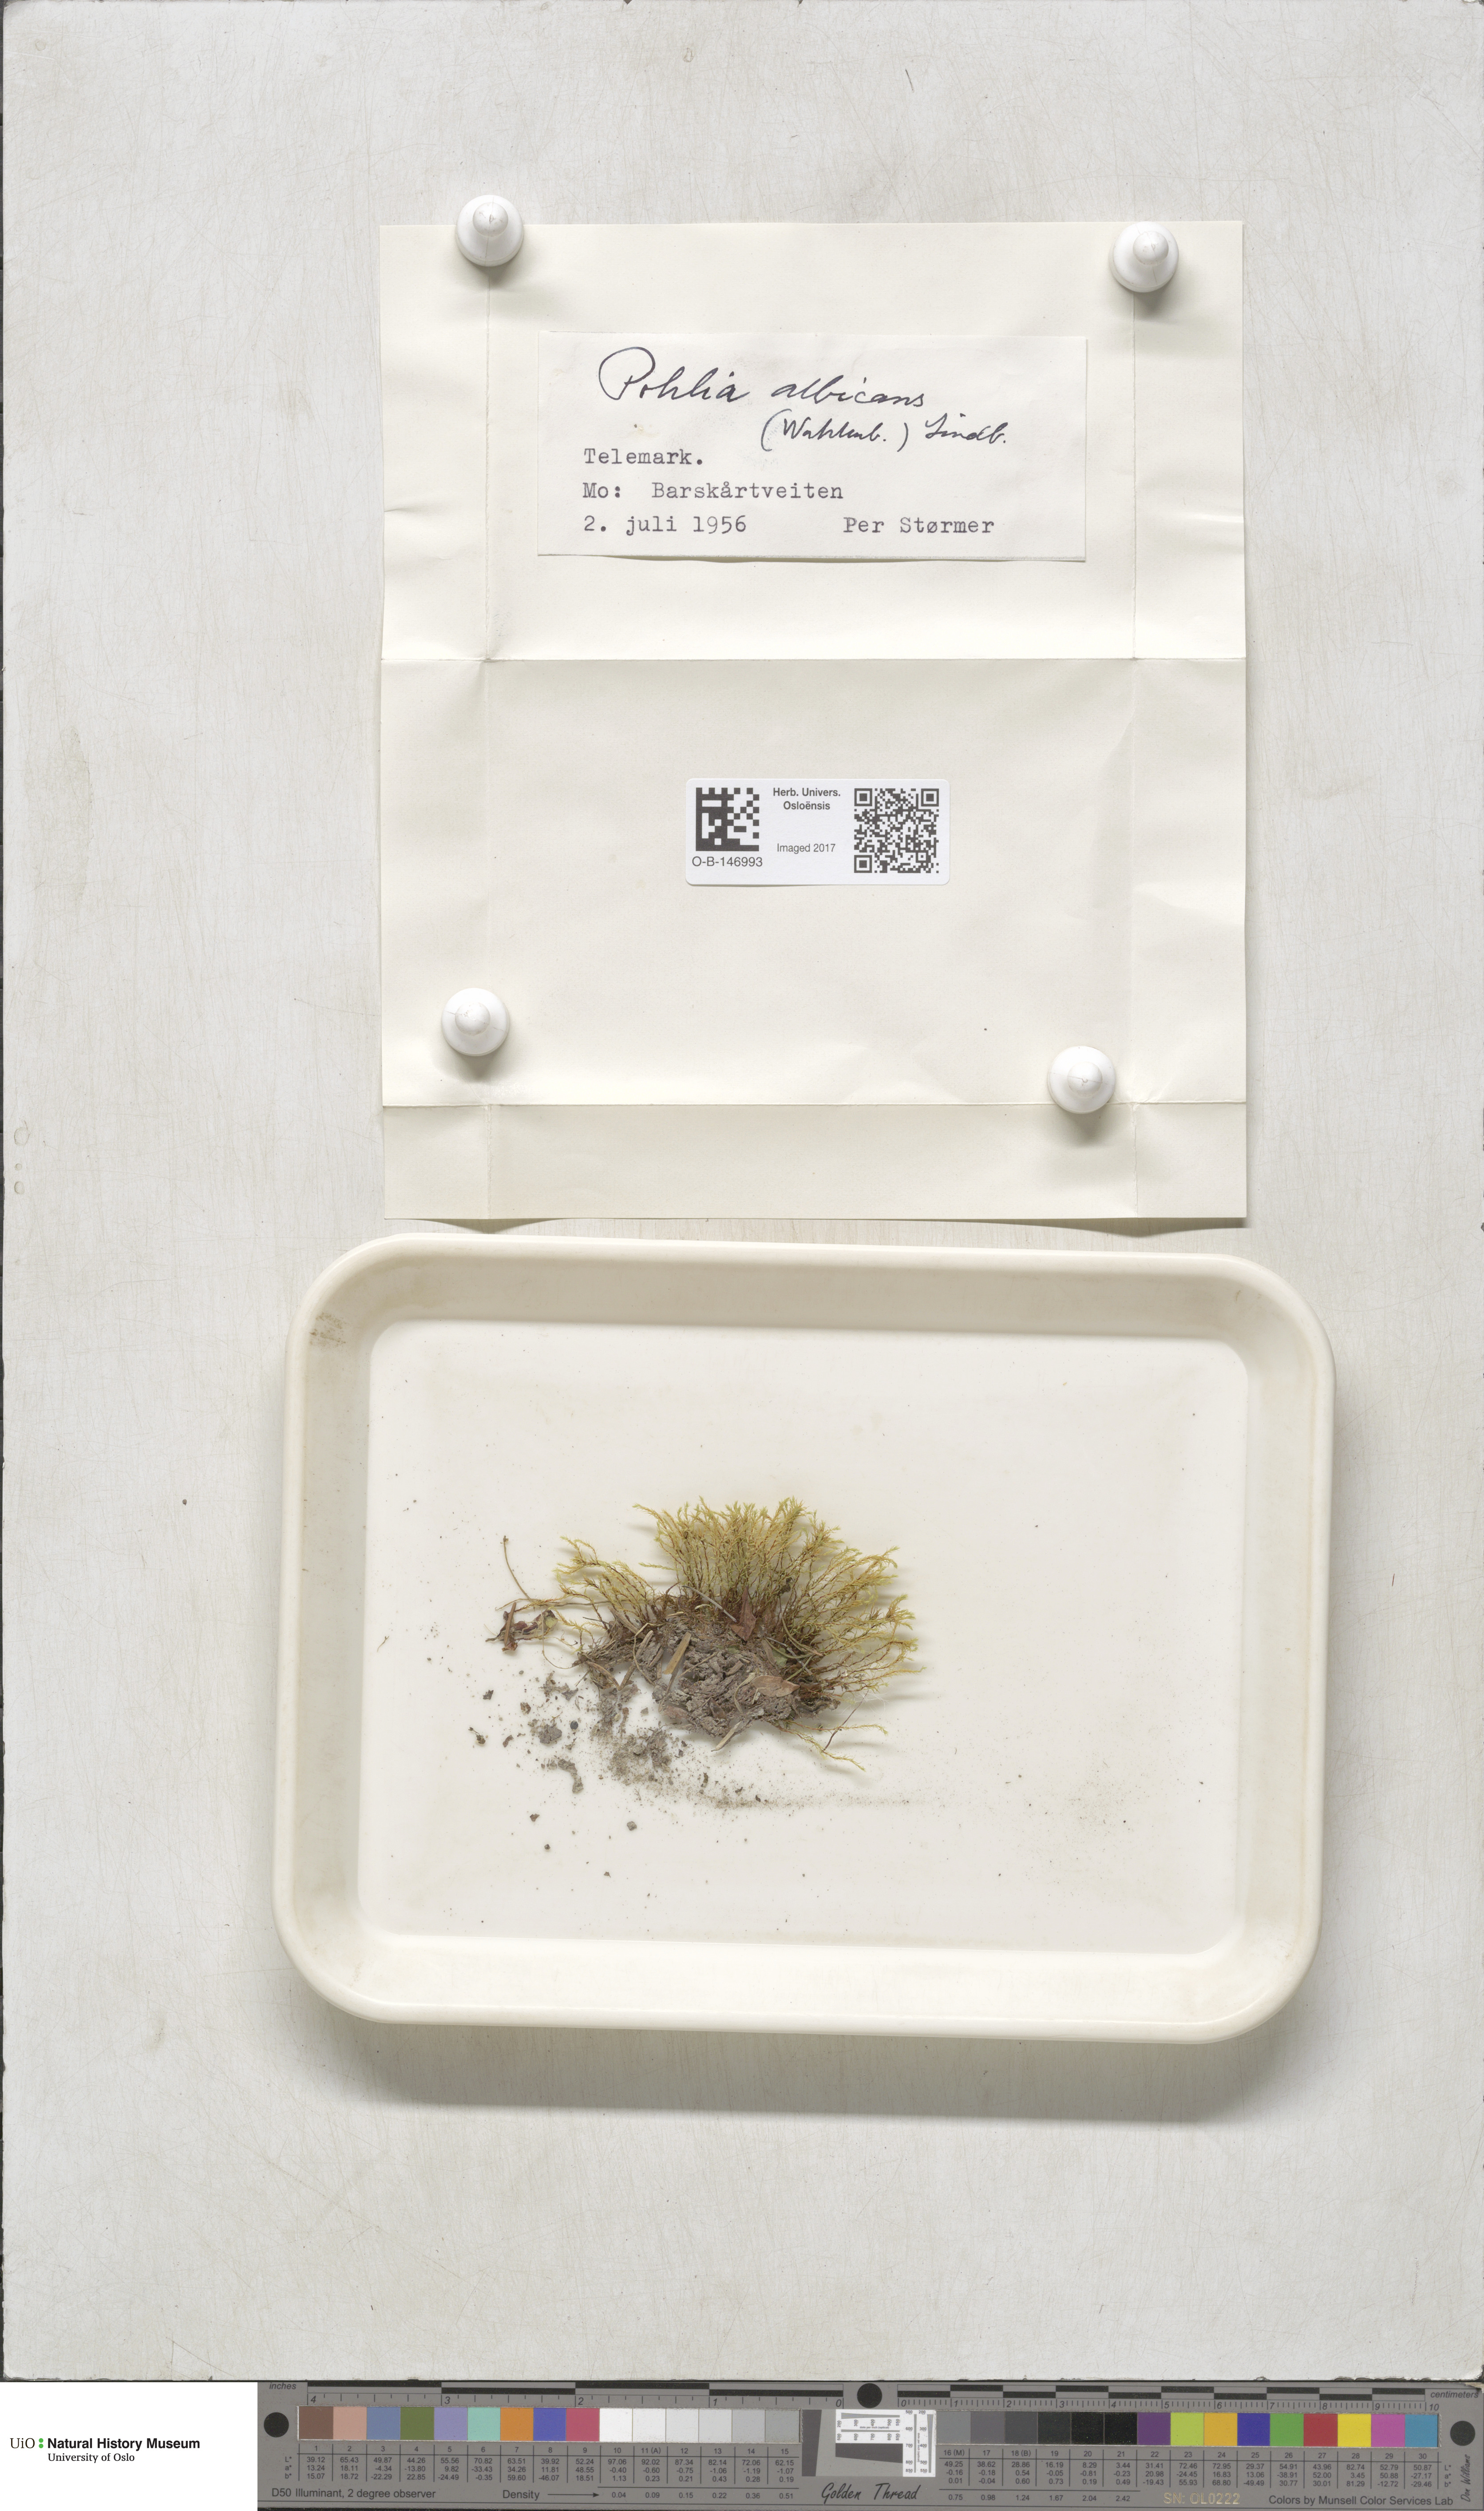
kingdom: Plantae
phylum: Bryophyta
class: Bryopsida
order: Bryales
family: Mniaceae
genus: Pohlia
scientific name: Pohlia wahlenbergii
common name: Wahlenberg's nodding moss
